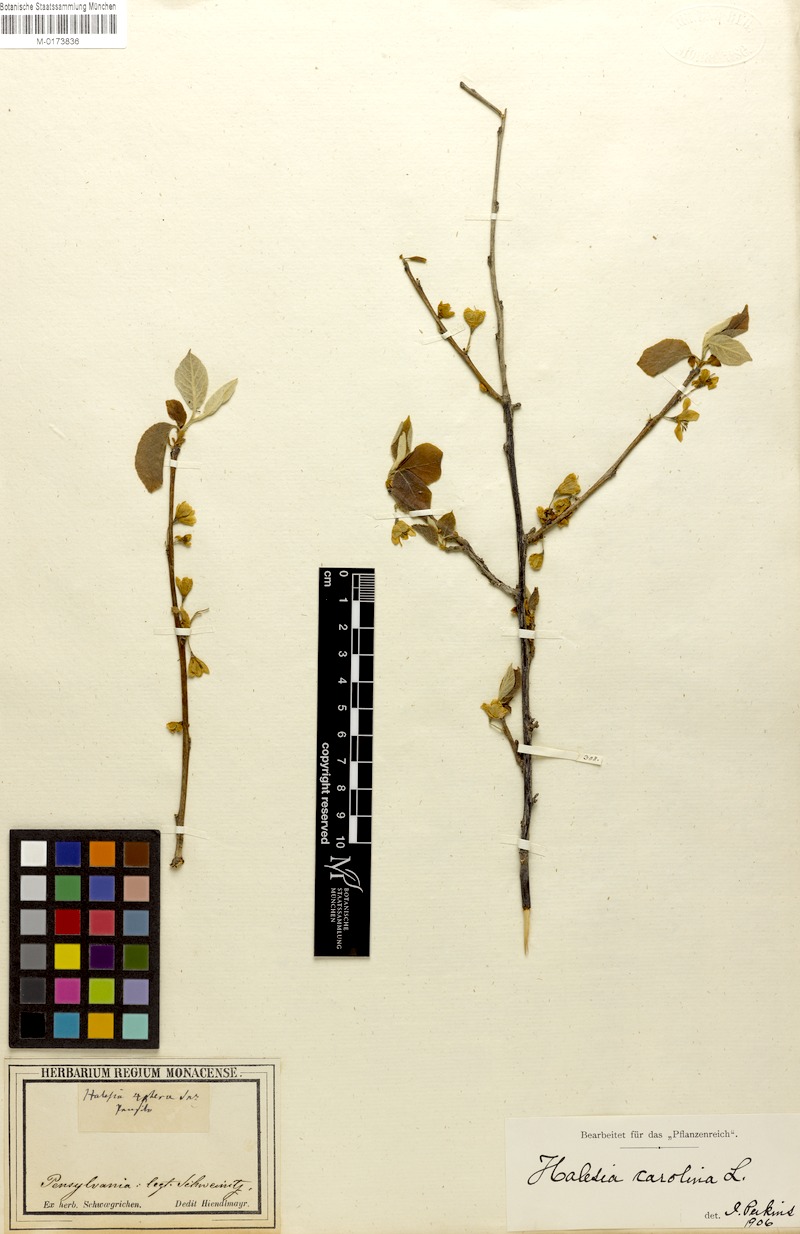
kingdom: Plantae
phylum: Tracheophyta
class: Magnoliopsida
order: Ericales
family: Styracaceae
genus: Halesia
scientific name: Halesia carolina
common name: Carolina silverbell
